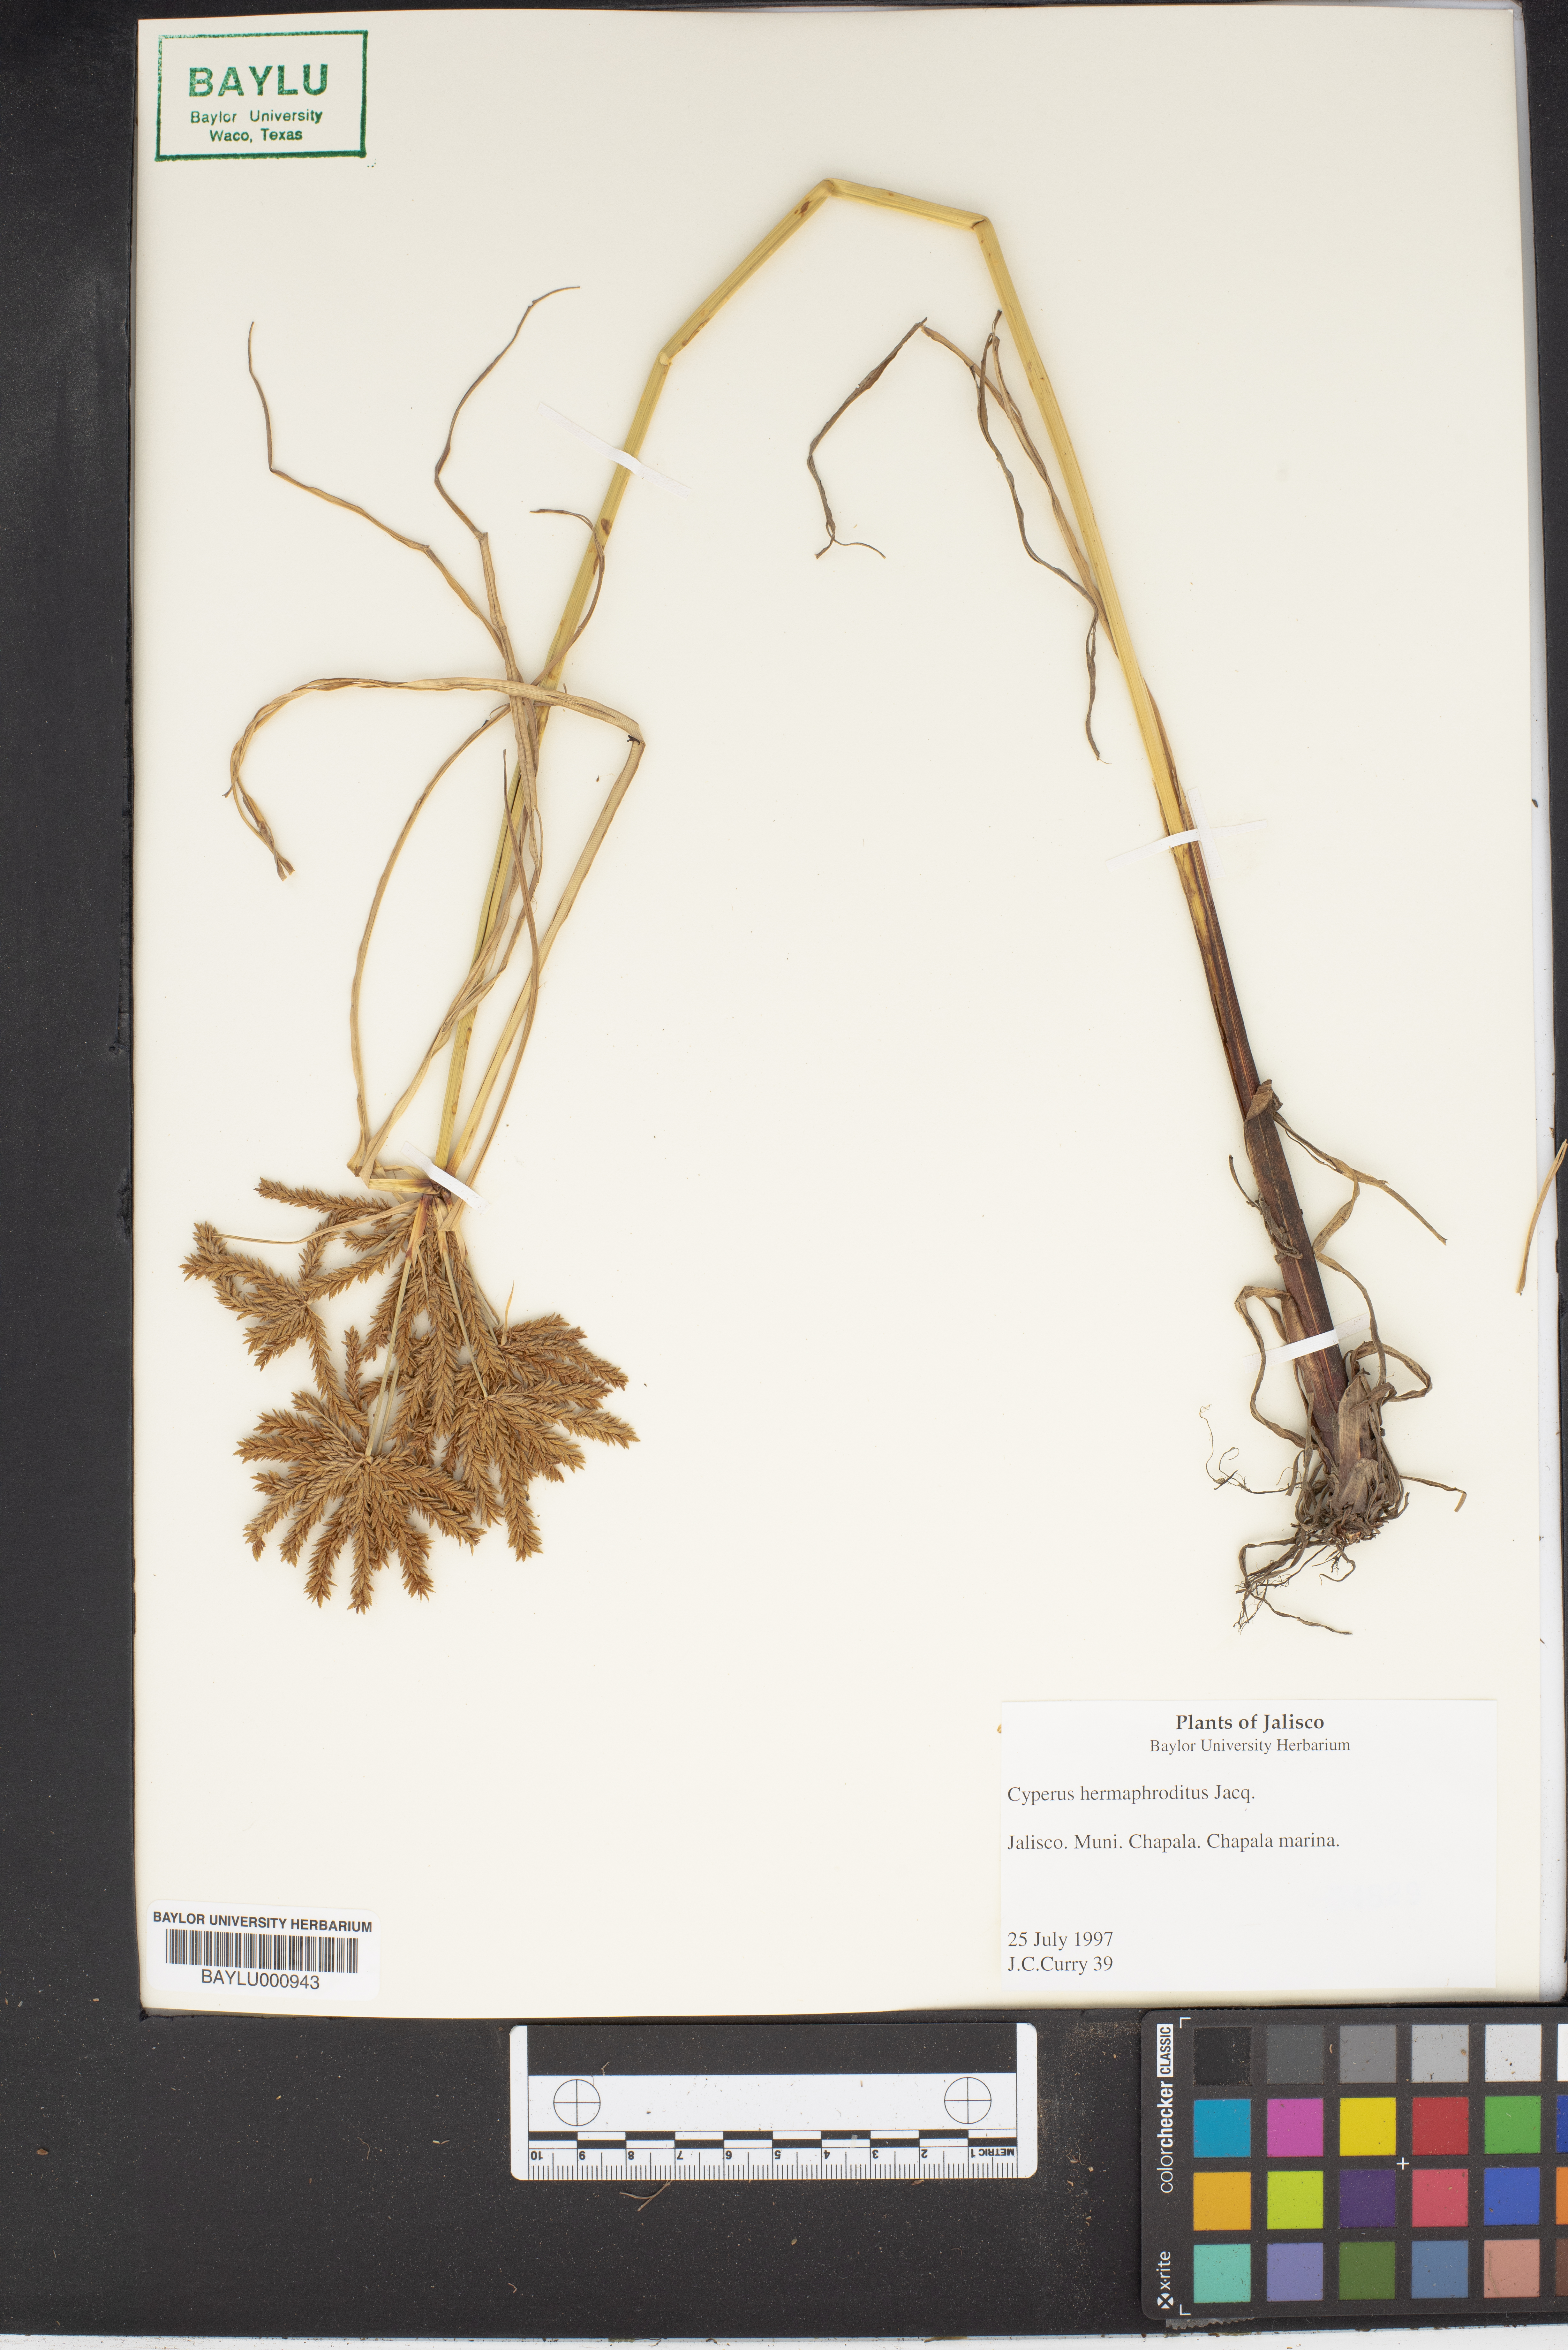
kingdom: Plantae
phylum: Tracheophyta
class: Liliopsida
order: Poales
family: Cyperaceae
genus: Cyperus
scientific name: Cyperus hermaphroditus
